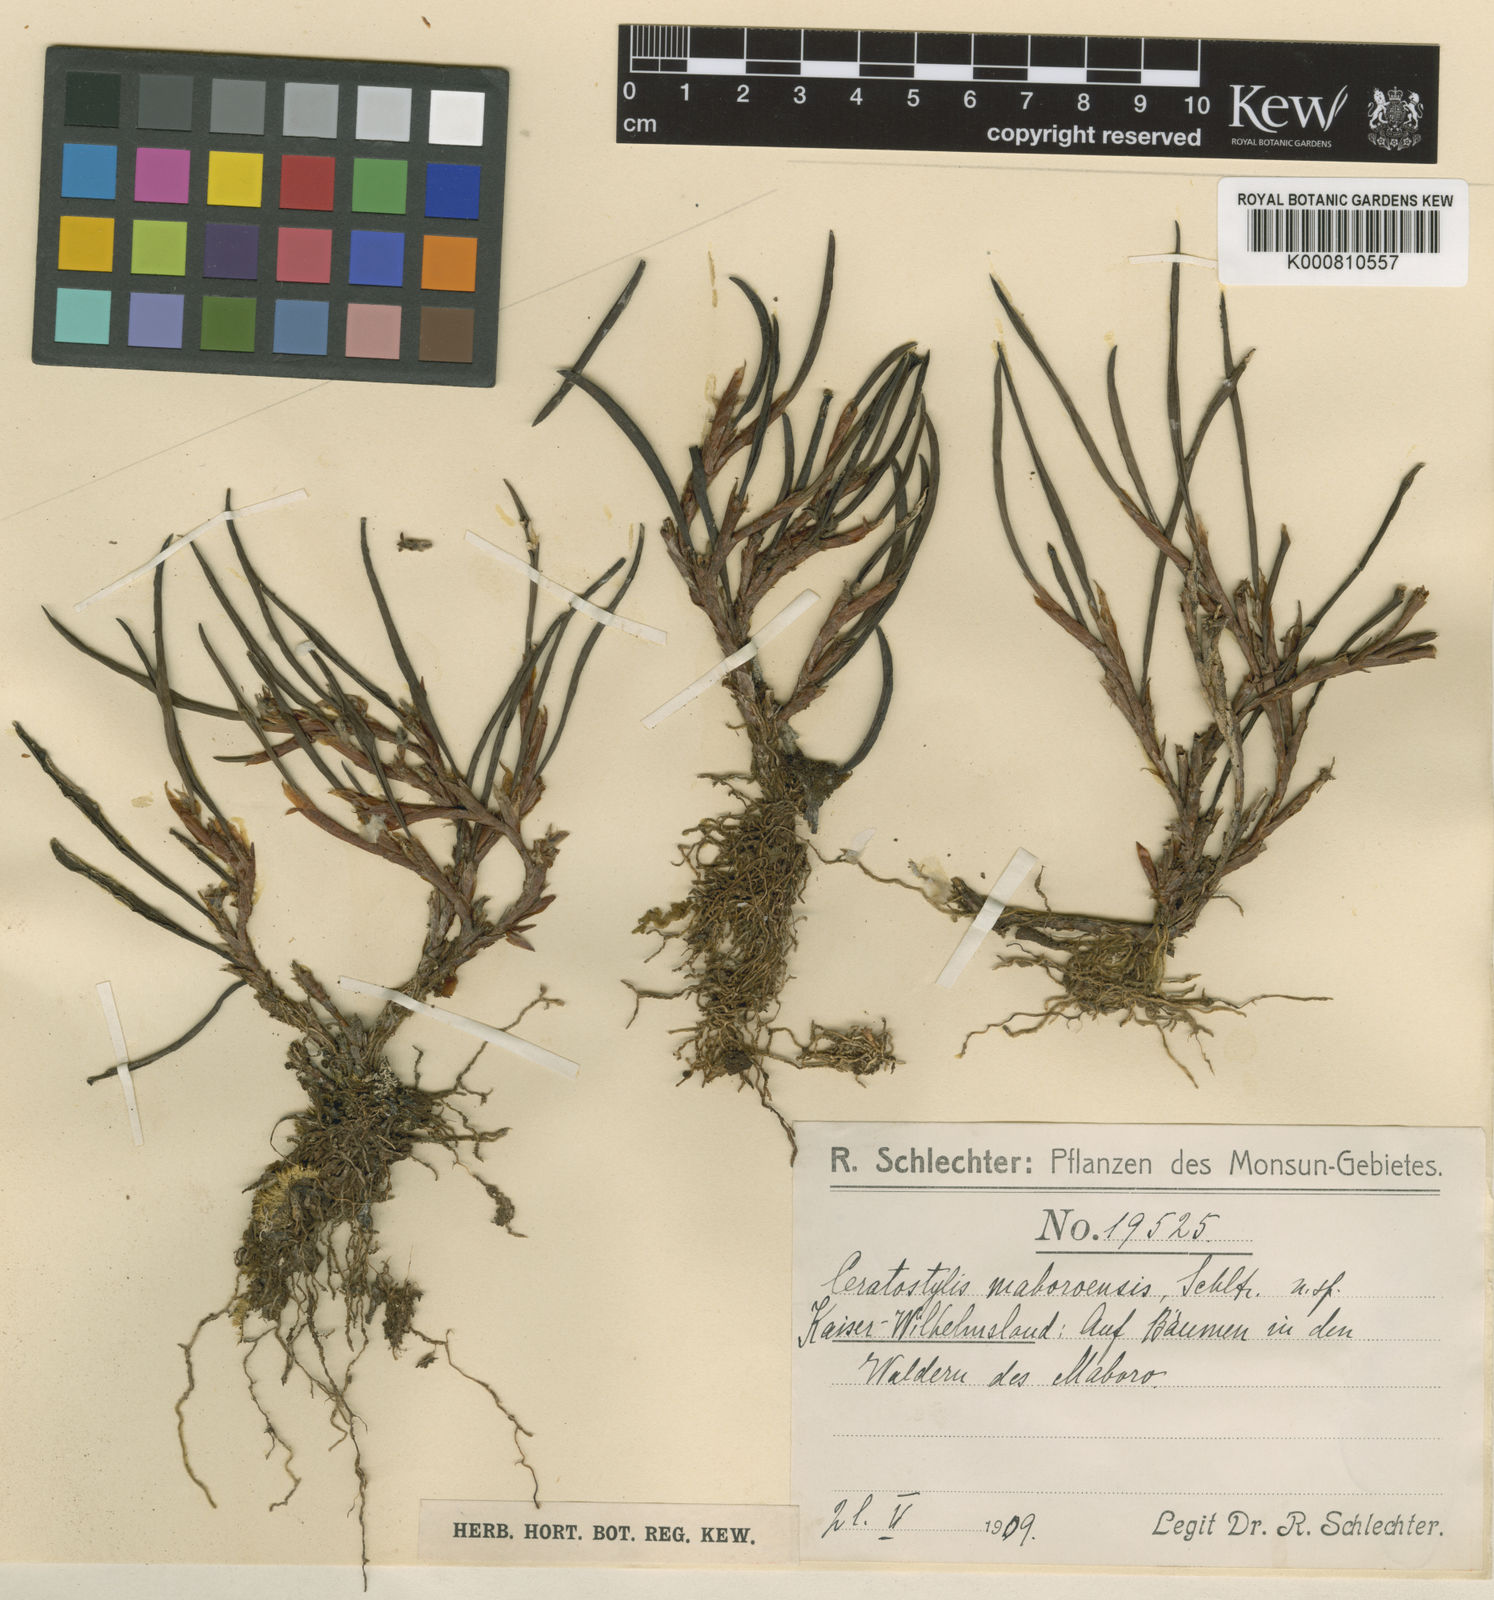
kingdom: Plantae
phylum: Tracheophyta
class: Liliopsida
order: Asparagales
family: Orchidaceae
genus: Ceratostylis
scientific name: Ceratostylis maboroensis
